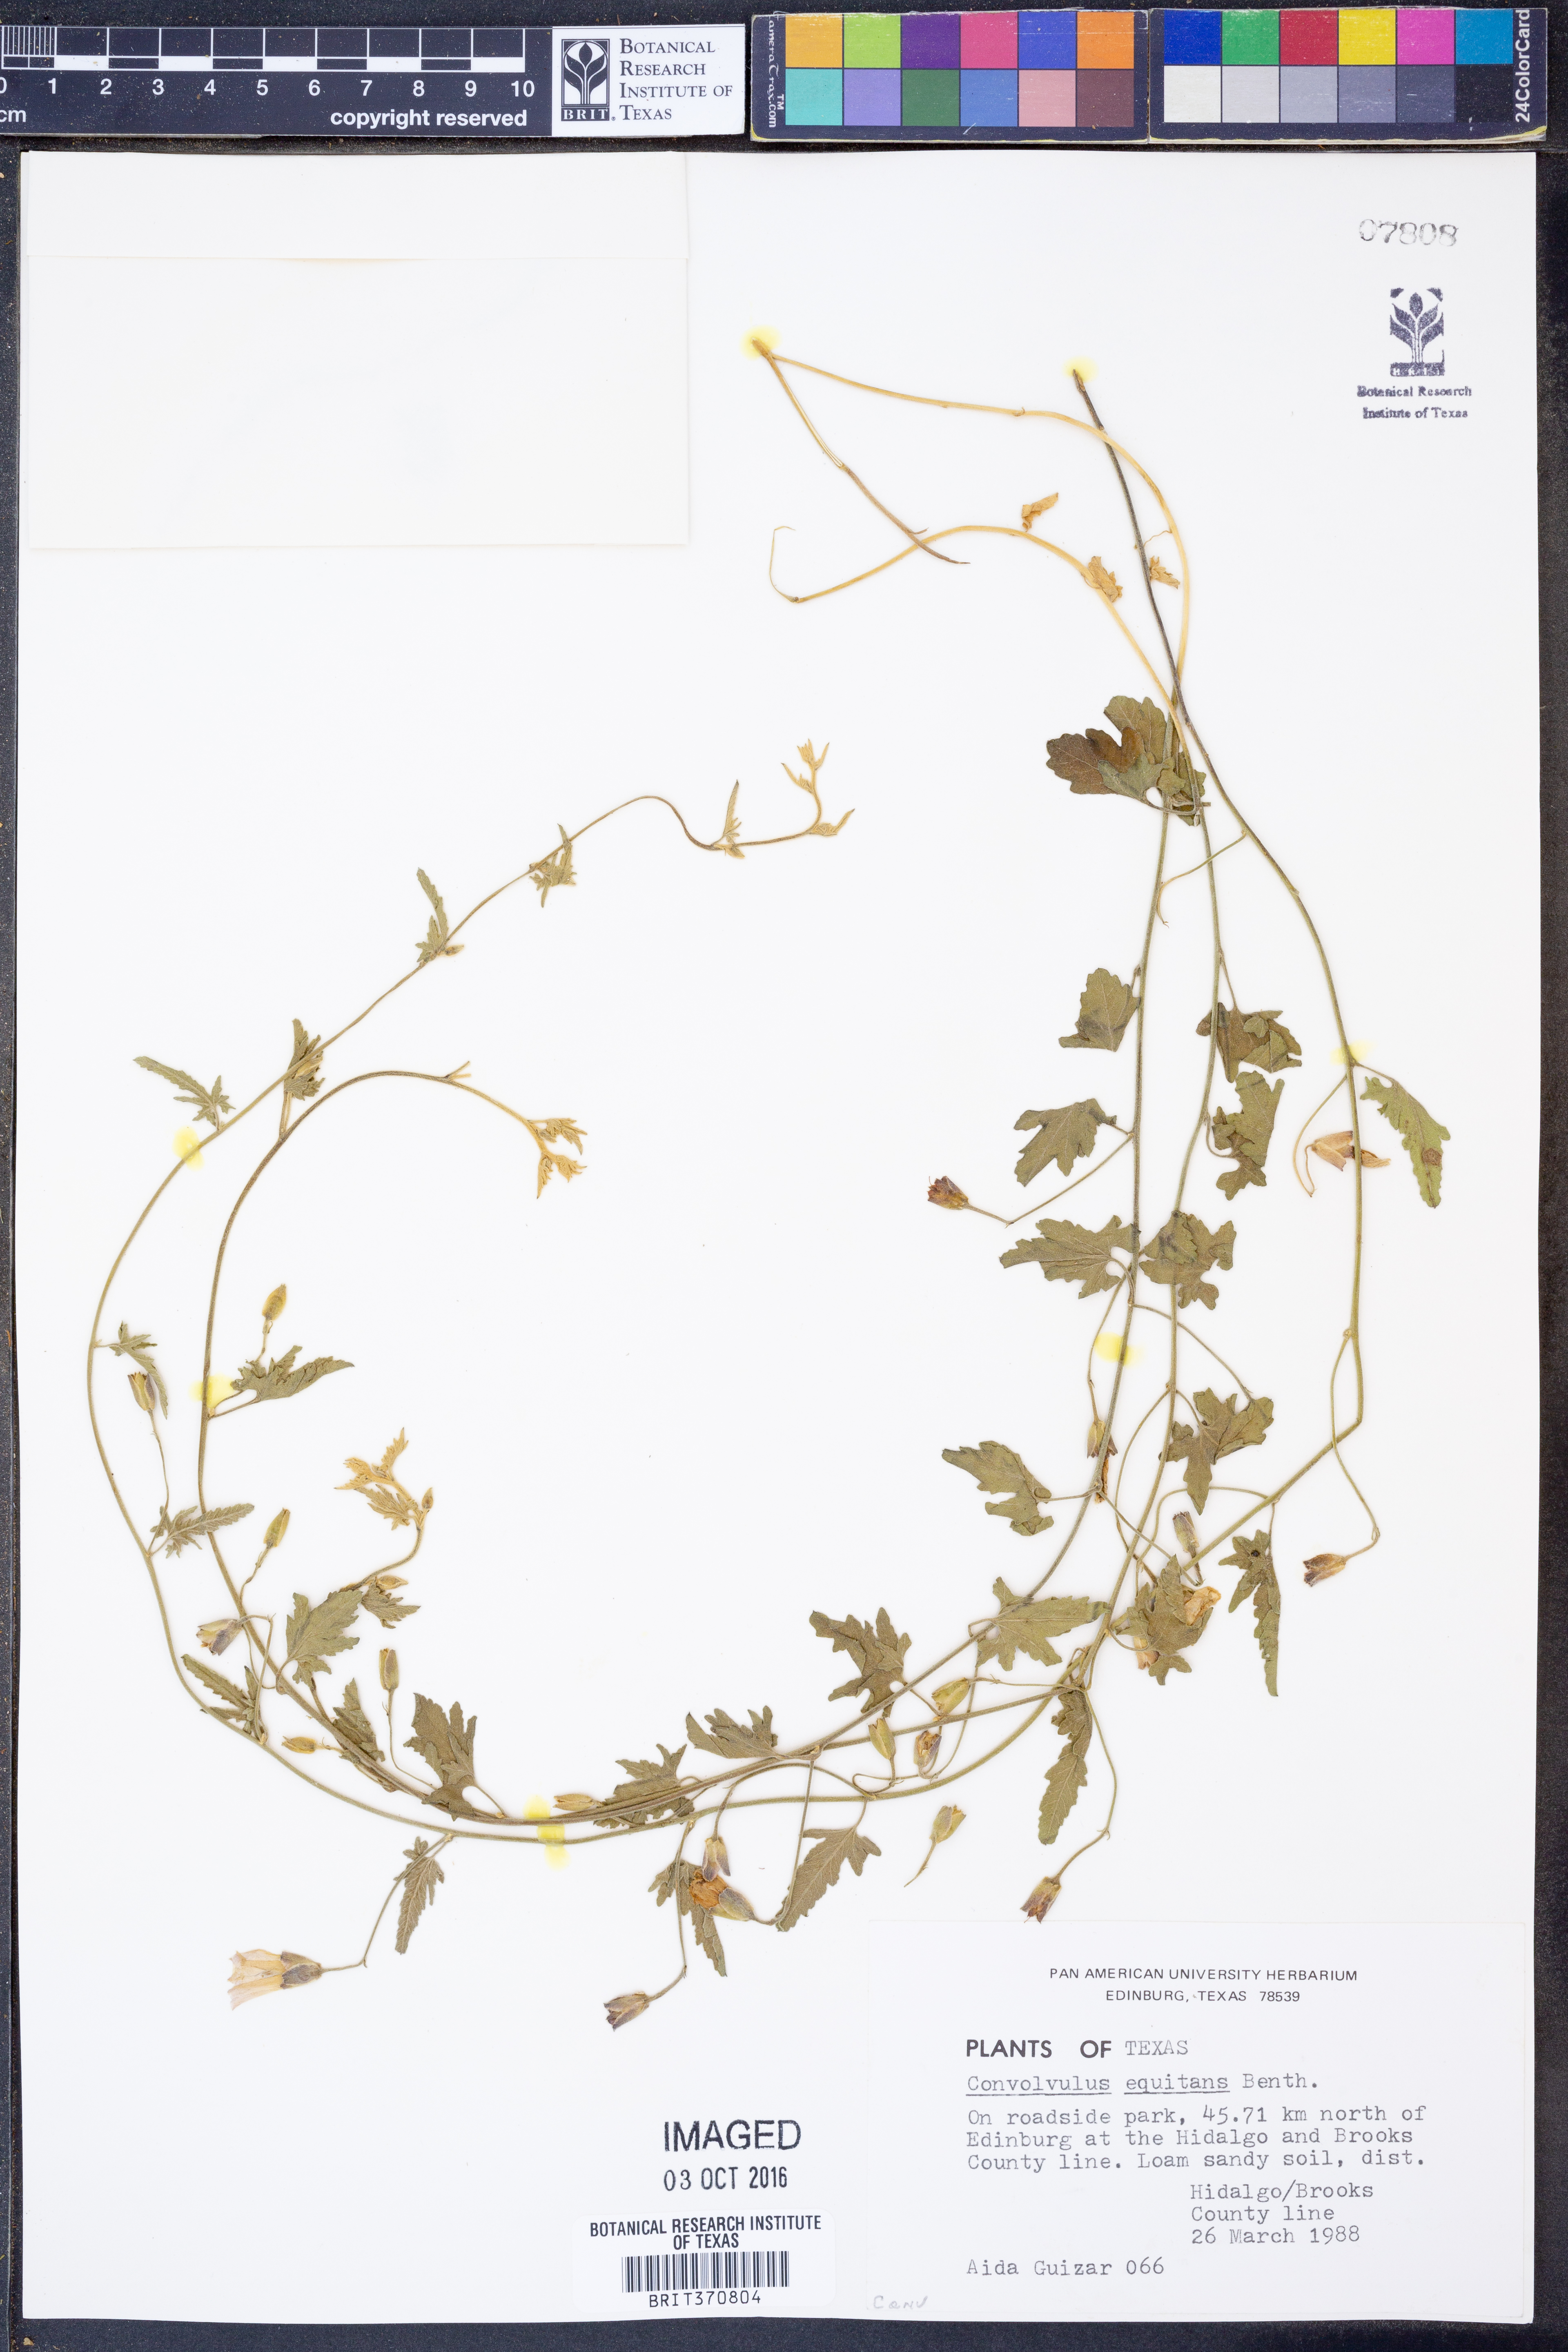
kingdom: Plantae
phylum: Tracheophyta
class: Magnoliopsida
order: Solanales
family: Convolvulaceae
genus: Convolvulus
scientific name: Convolvulus equitans
